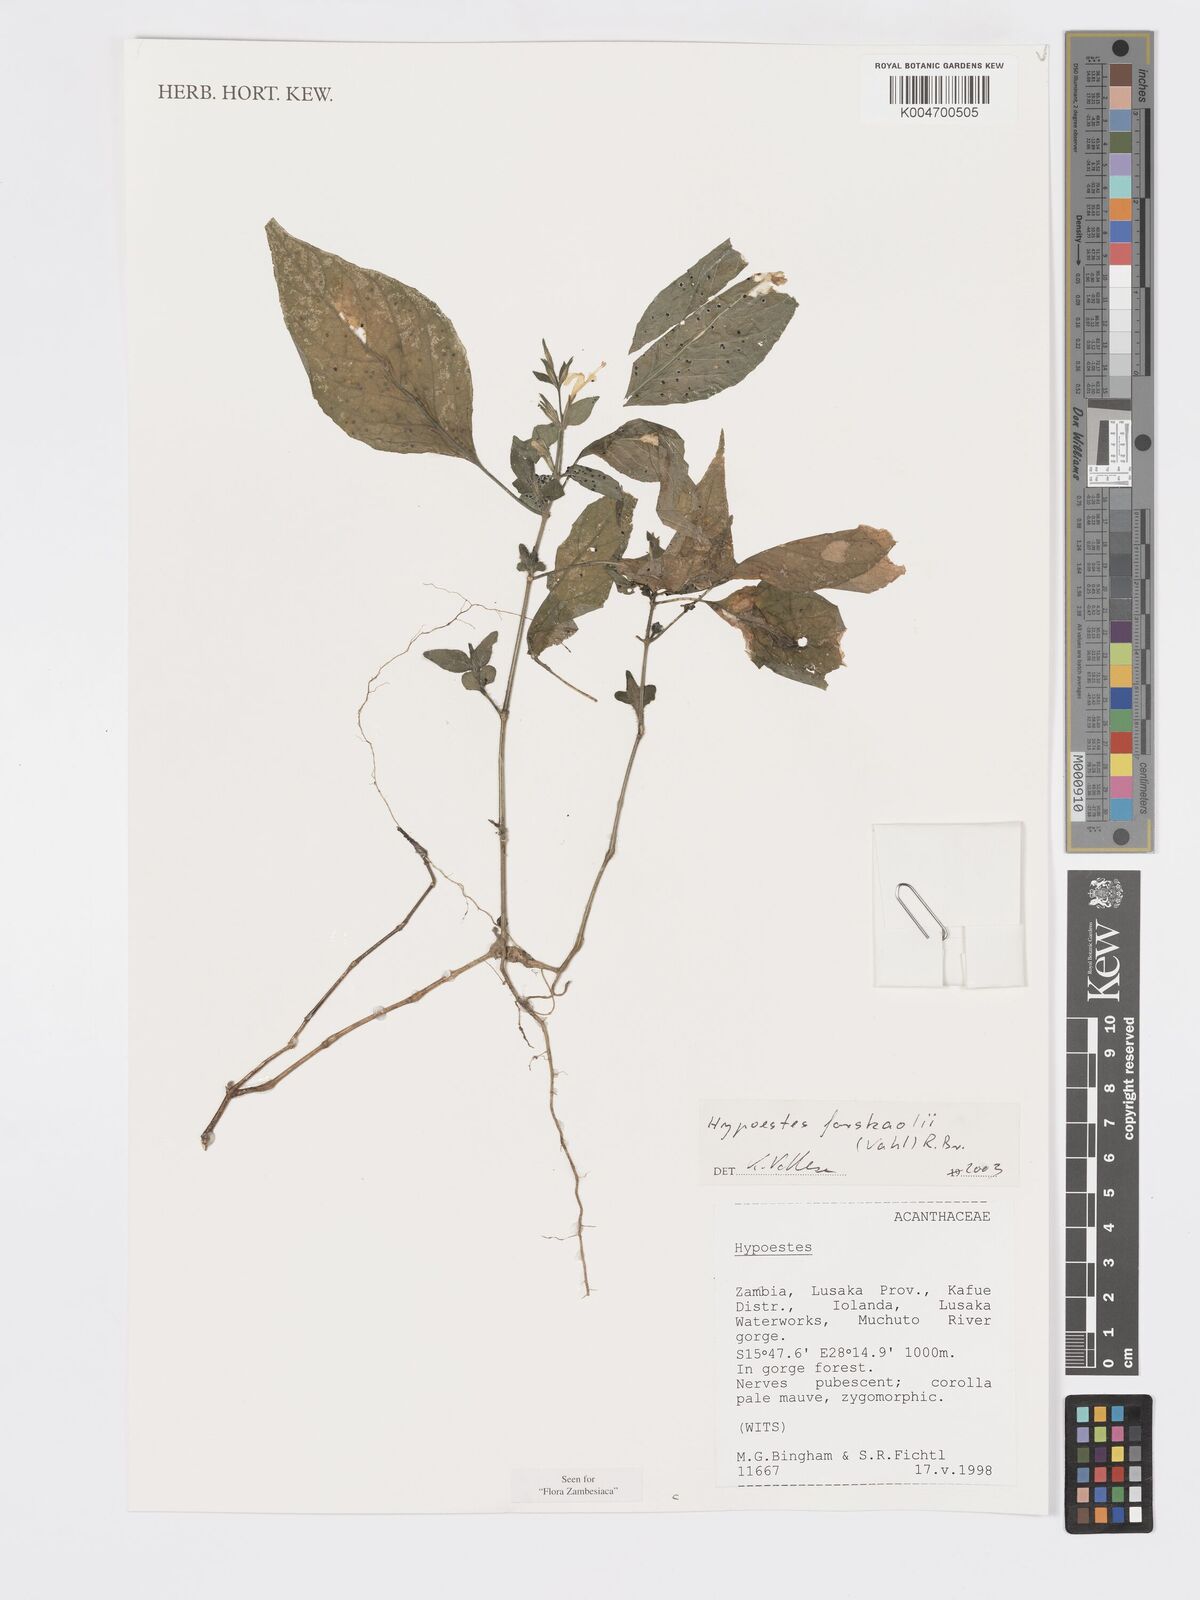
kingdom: Plantae
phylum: Tracheophyta
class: Magnoliopsida
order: Lamiales
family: Acanthaceae
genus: Hypoestes
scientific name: Hypoestes forskaolii
